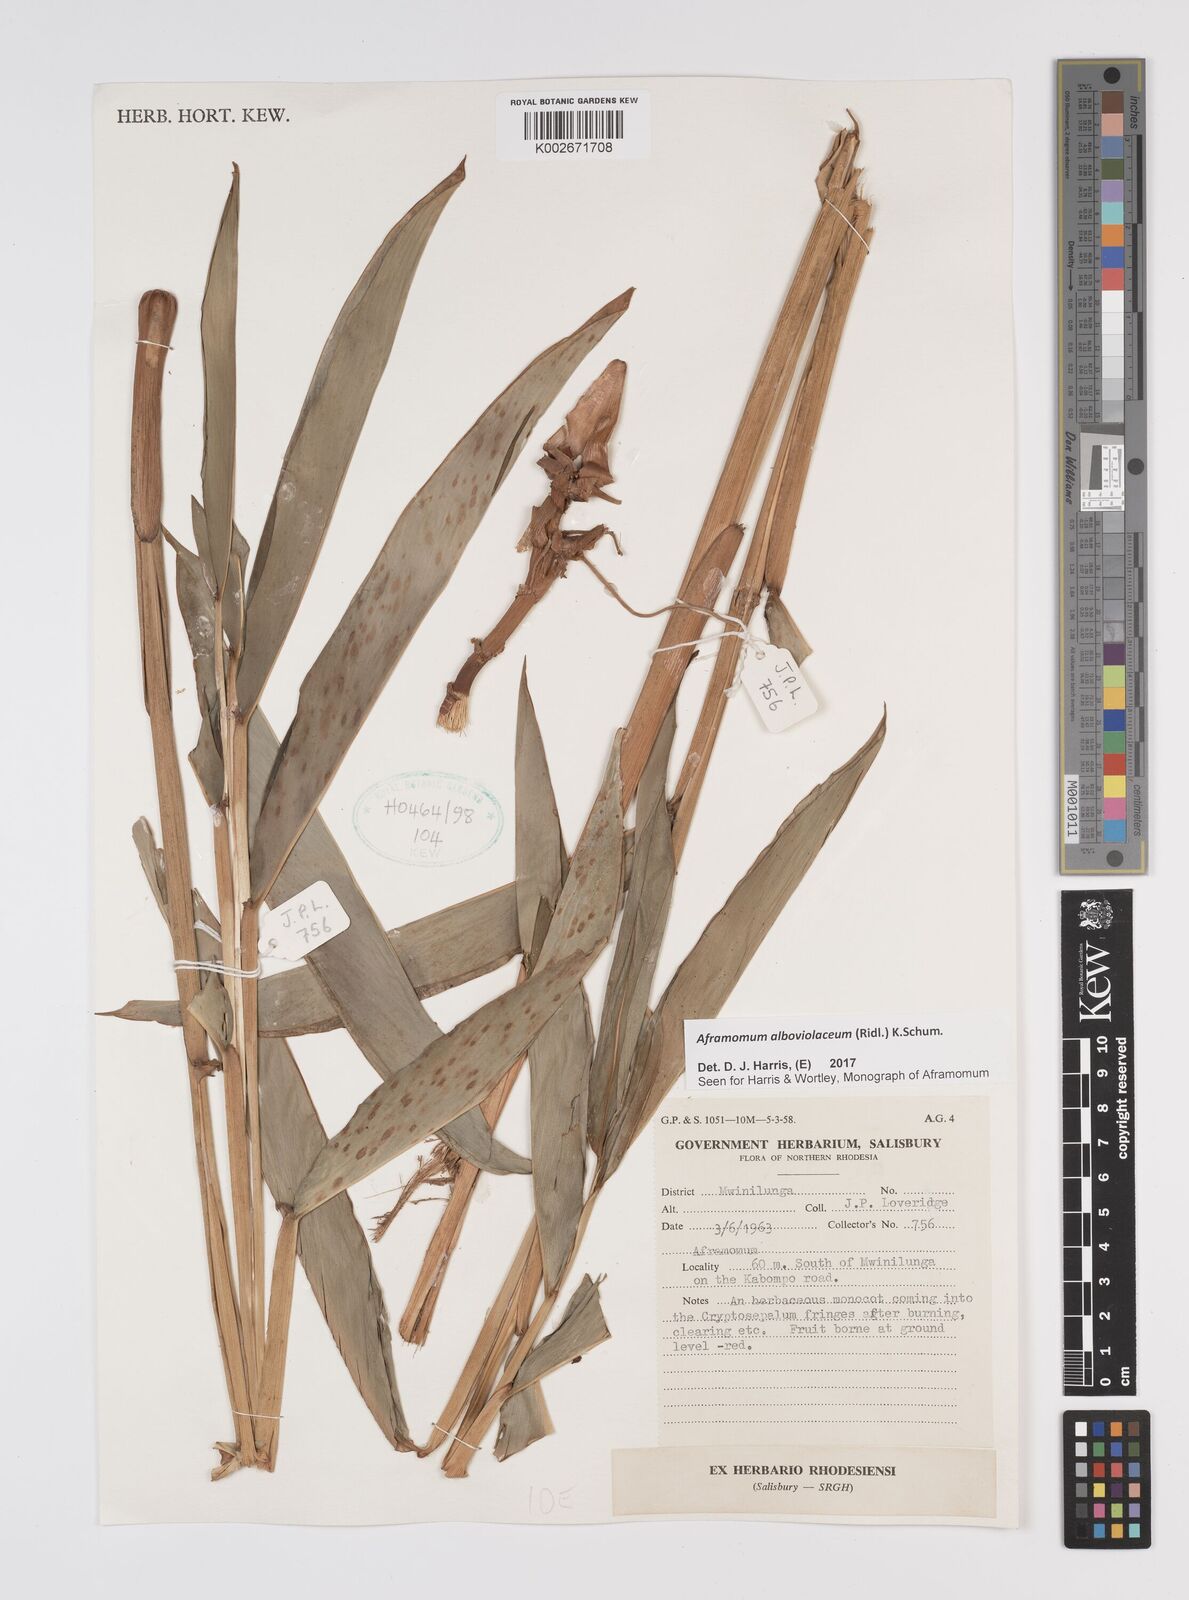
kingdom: Plantae
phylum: Tracheophyta
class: Liliopsida
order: Zingiberales
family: Zingiberaceae
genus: Aframomum
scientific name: Aframomum alboviolaceum
